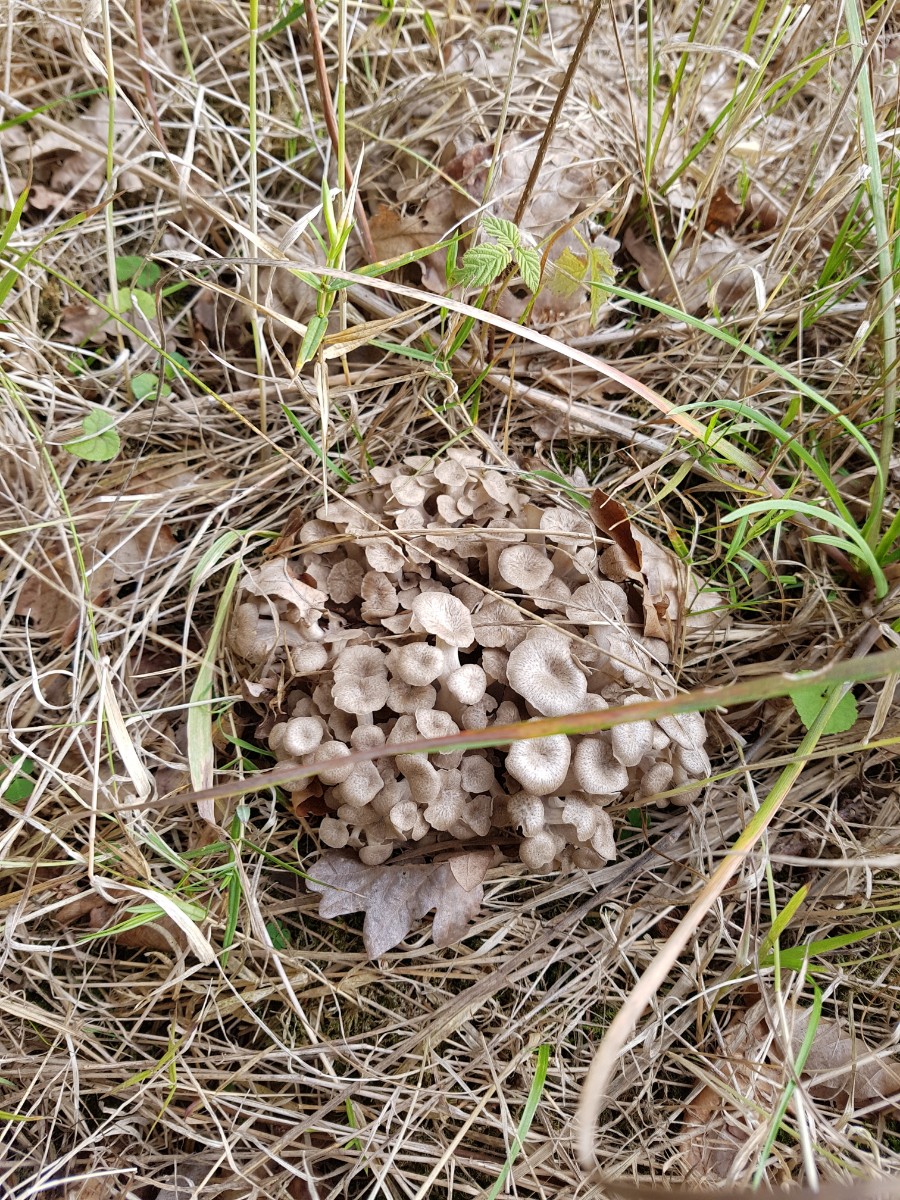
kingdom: Fungi
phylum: Basidiomycota
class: Agaricomycetes
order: Polyporales
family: Polyporaceae
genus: Polyporus
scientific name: Polyporus umbellatus
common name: skærmformet stilkporesvamp
